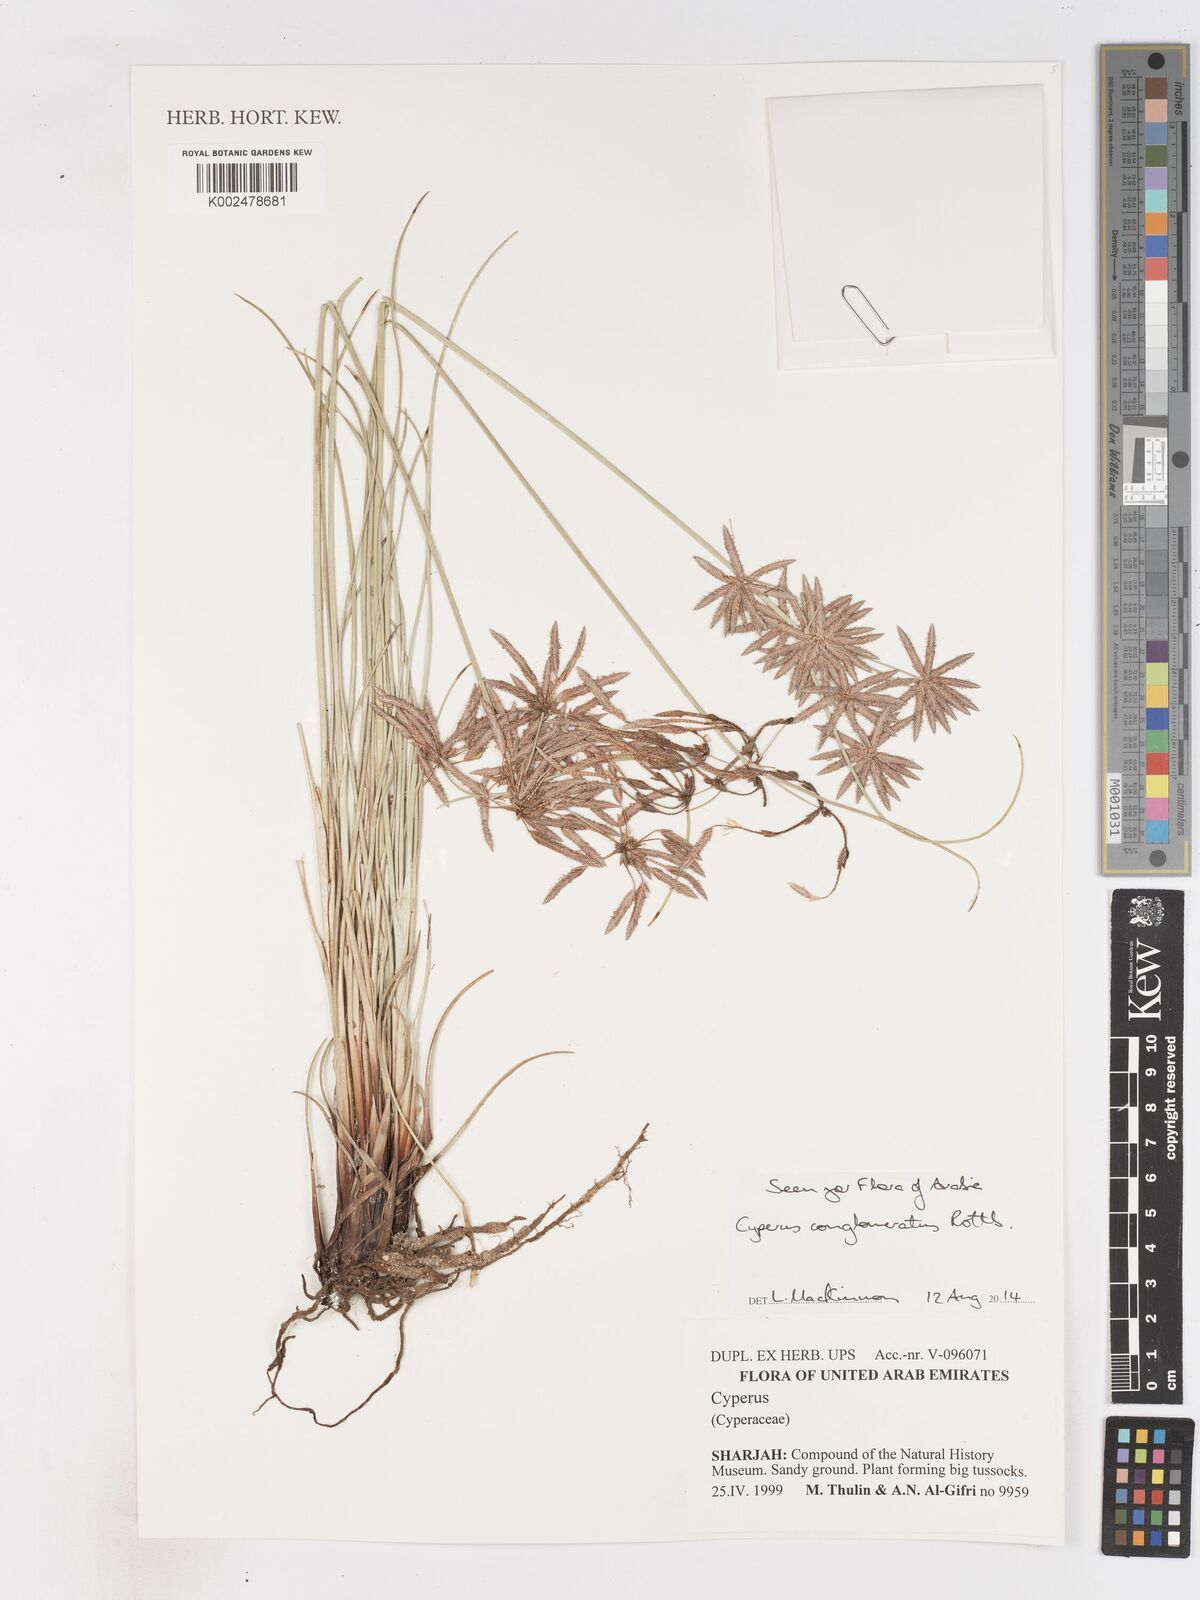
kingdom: Plantae
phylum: Tracheophyta
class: Liliopsida
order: Poales
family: Cyperaceae
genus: Cyperus
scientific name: Cyperus conglomeratus
